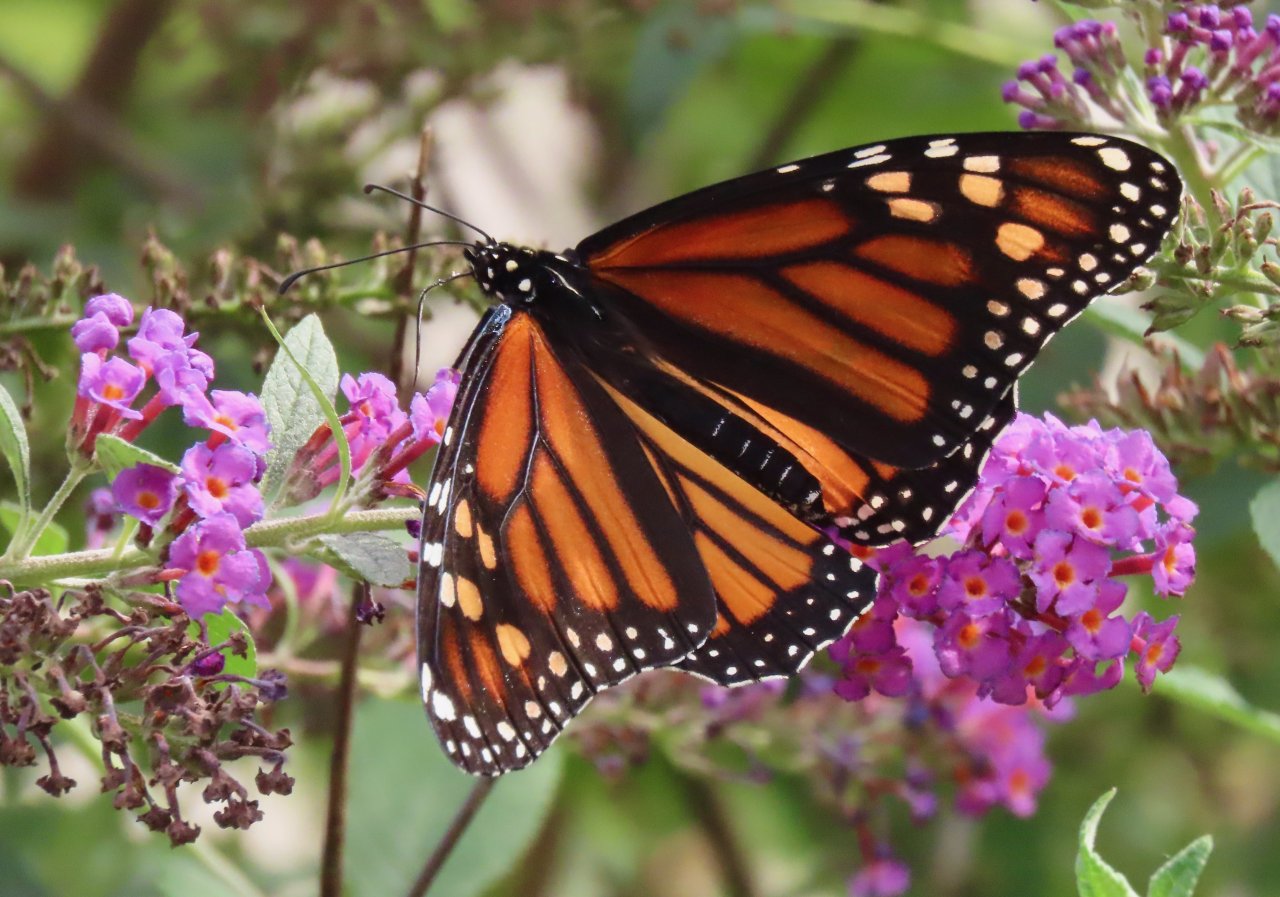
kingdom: Animalia
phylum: Arthropoda
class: Insecta
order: Lepidoptera
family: Nymphalidae
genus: Danaus
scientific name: Danaus plexippus
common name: Monarch
